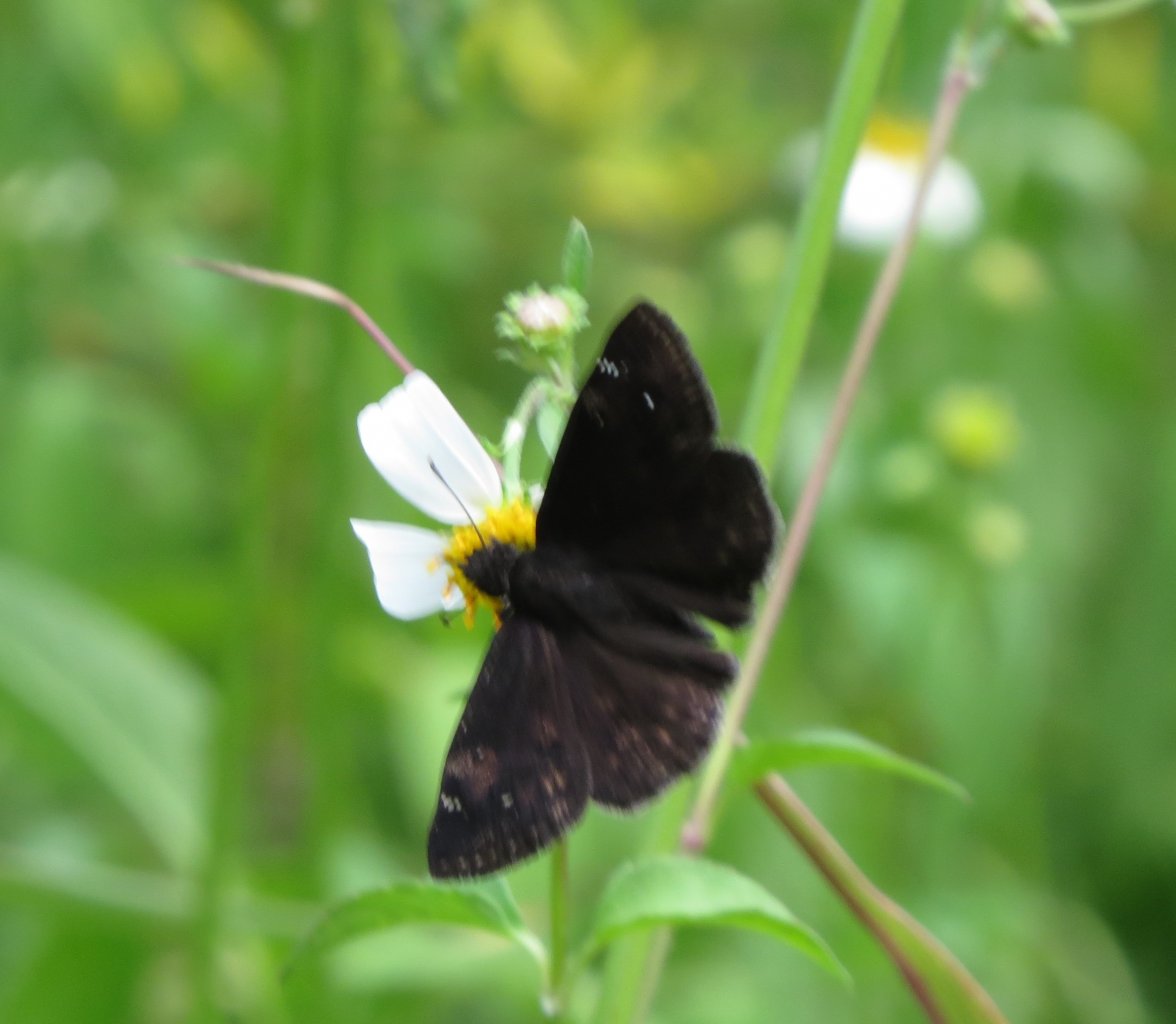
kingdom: Animalia
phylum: Arthropoda
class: Insecta
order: Lepidoptera
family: Hesperiidae
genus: Erynnis
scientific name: Erynnis zarucco
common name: Zarucco Duskywing
